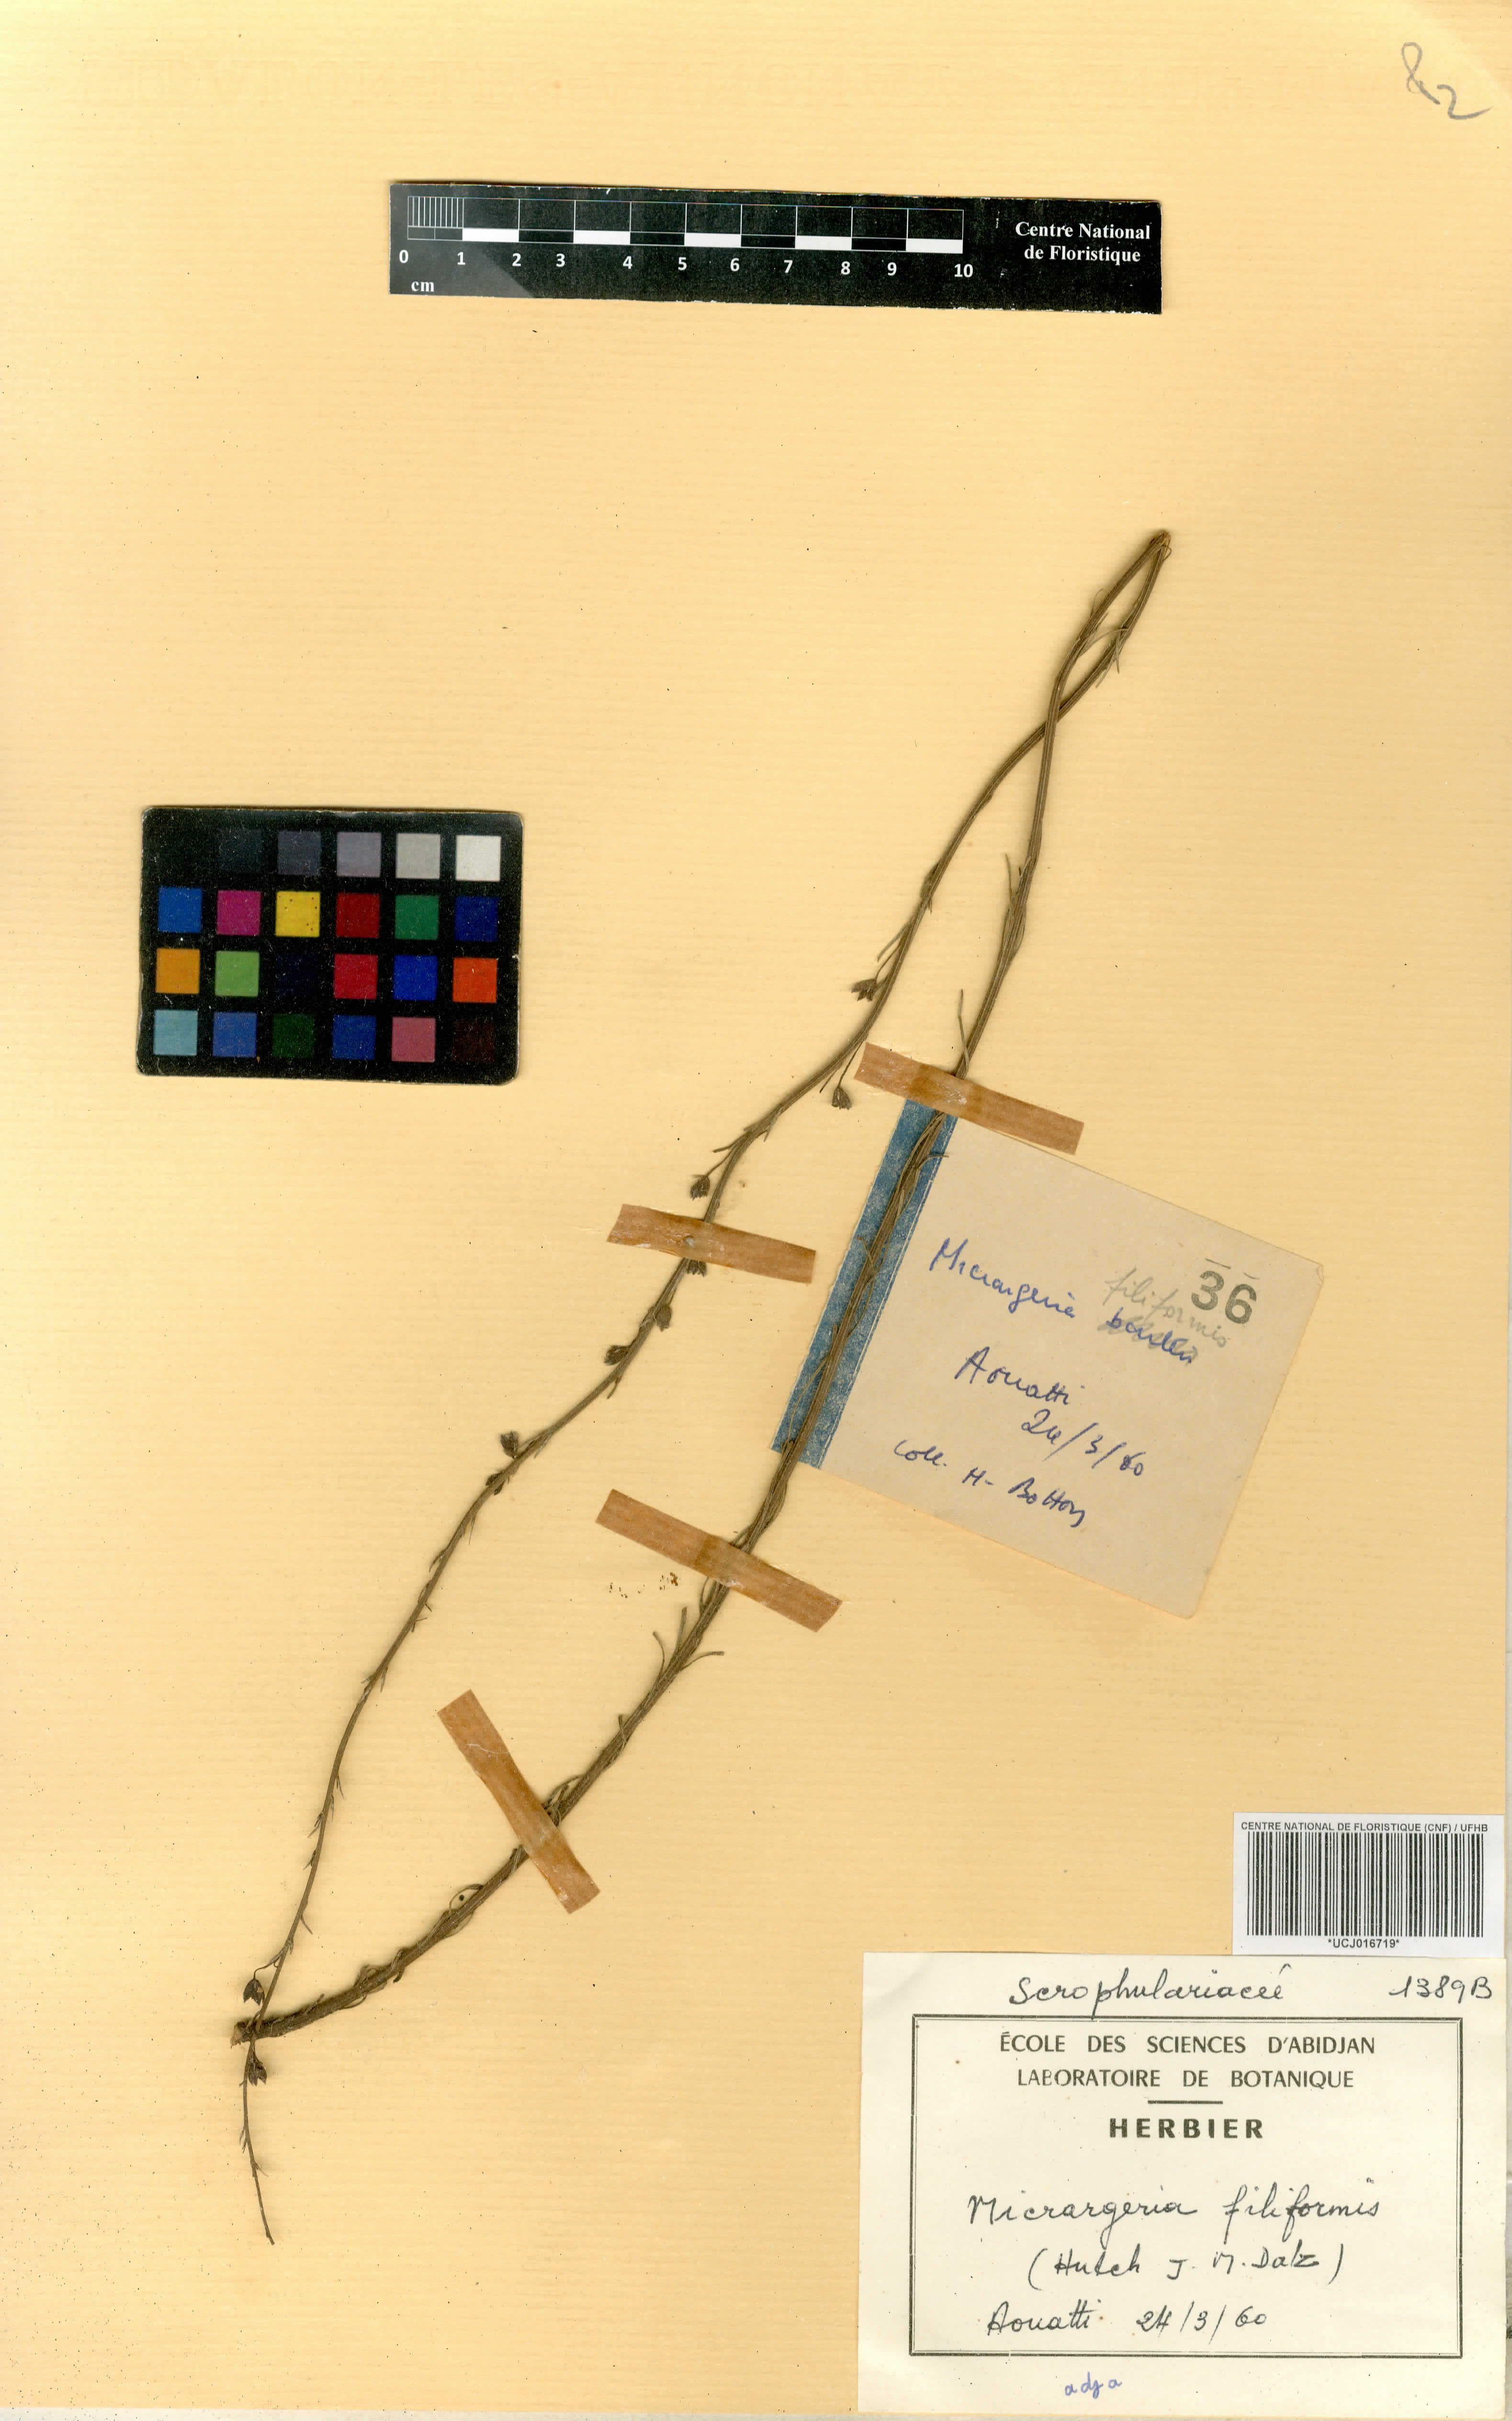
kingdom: Plantae
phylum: Tracheophyta
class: Magnoliopsida
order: Lamiales
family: Orobanchaceae
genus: Micrargeria
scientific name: Micrargeria filiformis
